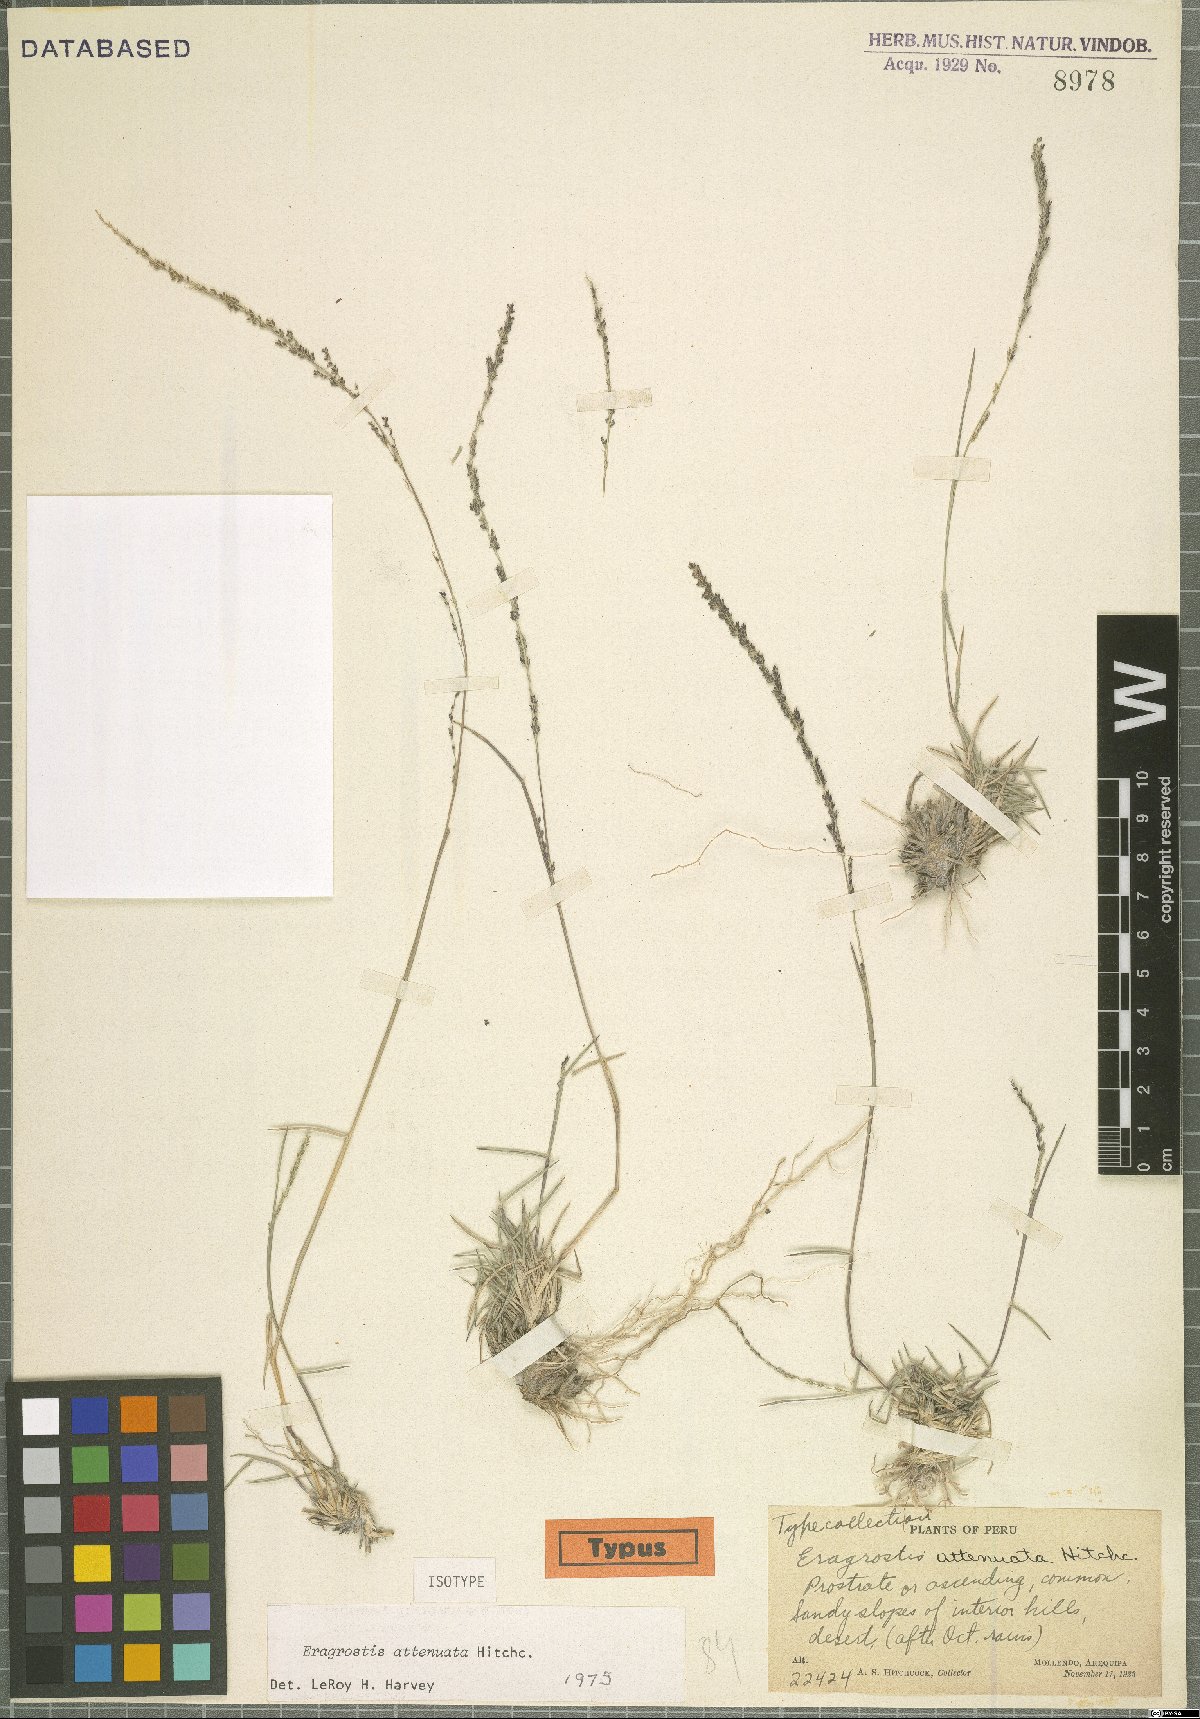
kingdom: Plantae
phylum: Tracheophyta
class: Liliopsida
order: Poales
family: Poaceae
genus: Eragrostis
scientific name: Eragrostis attenuata
